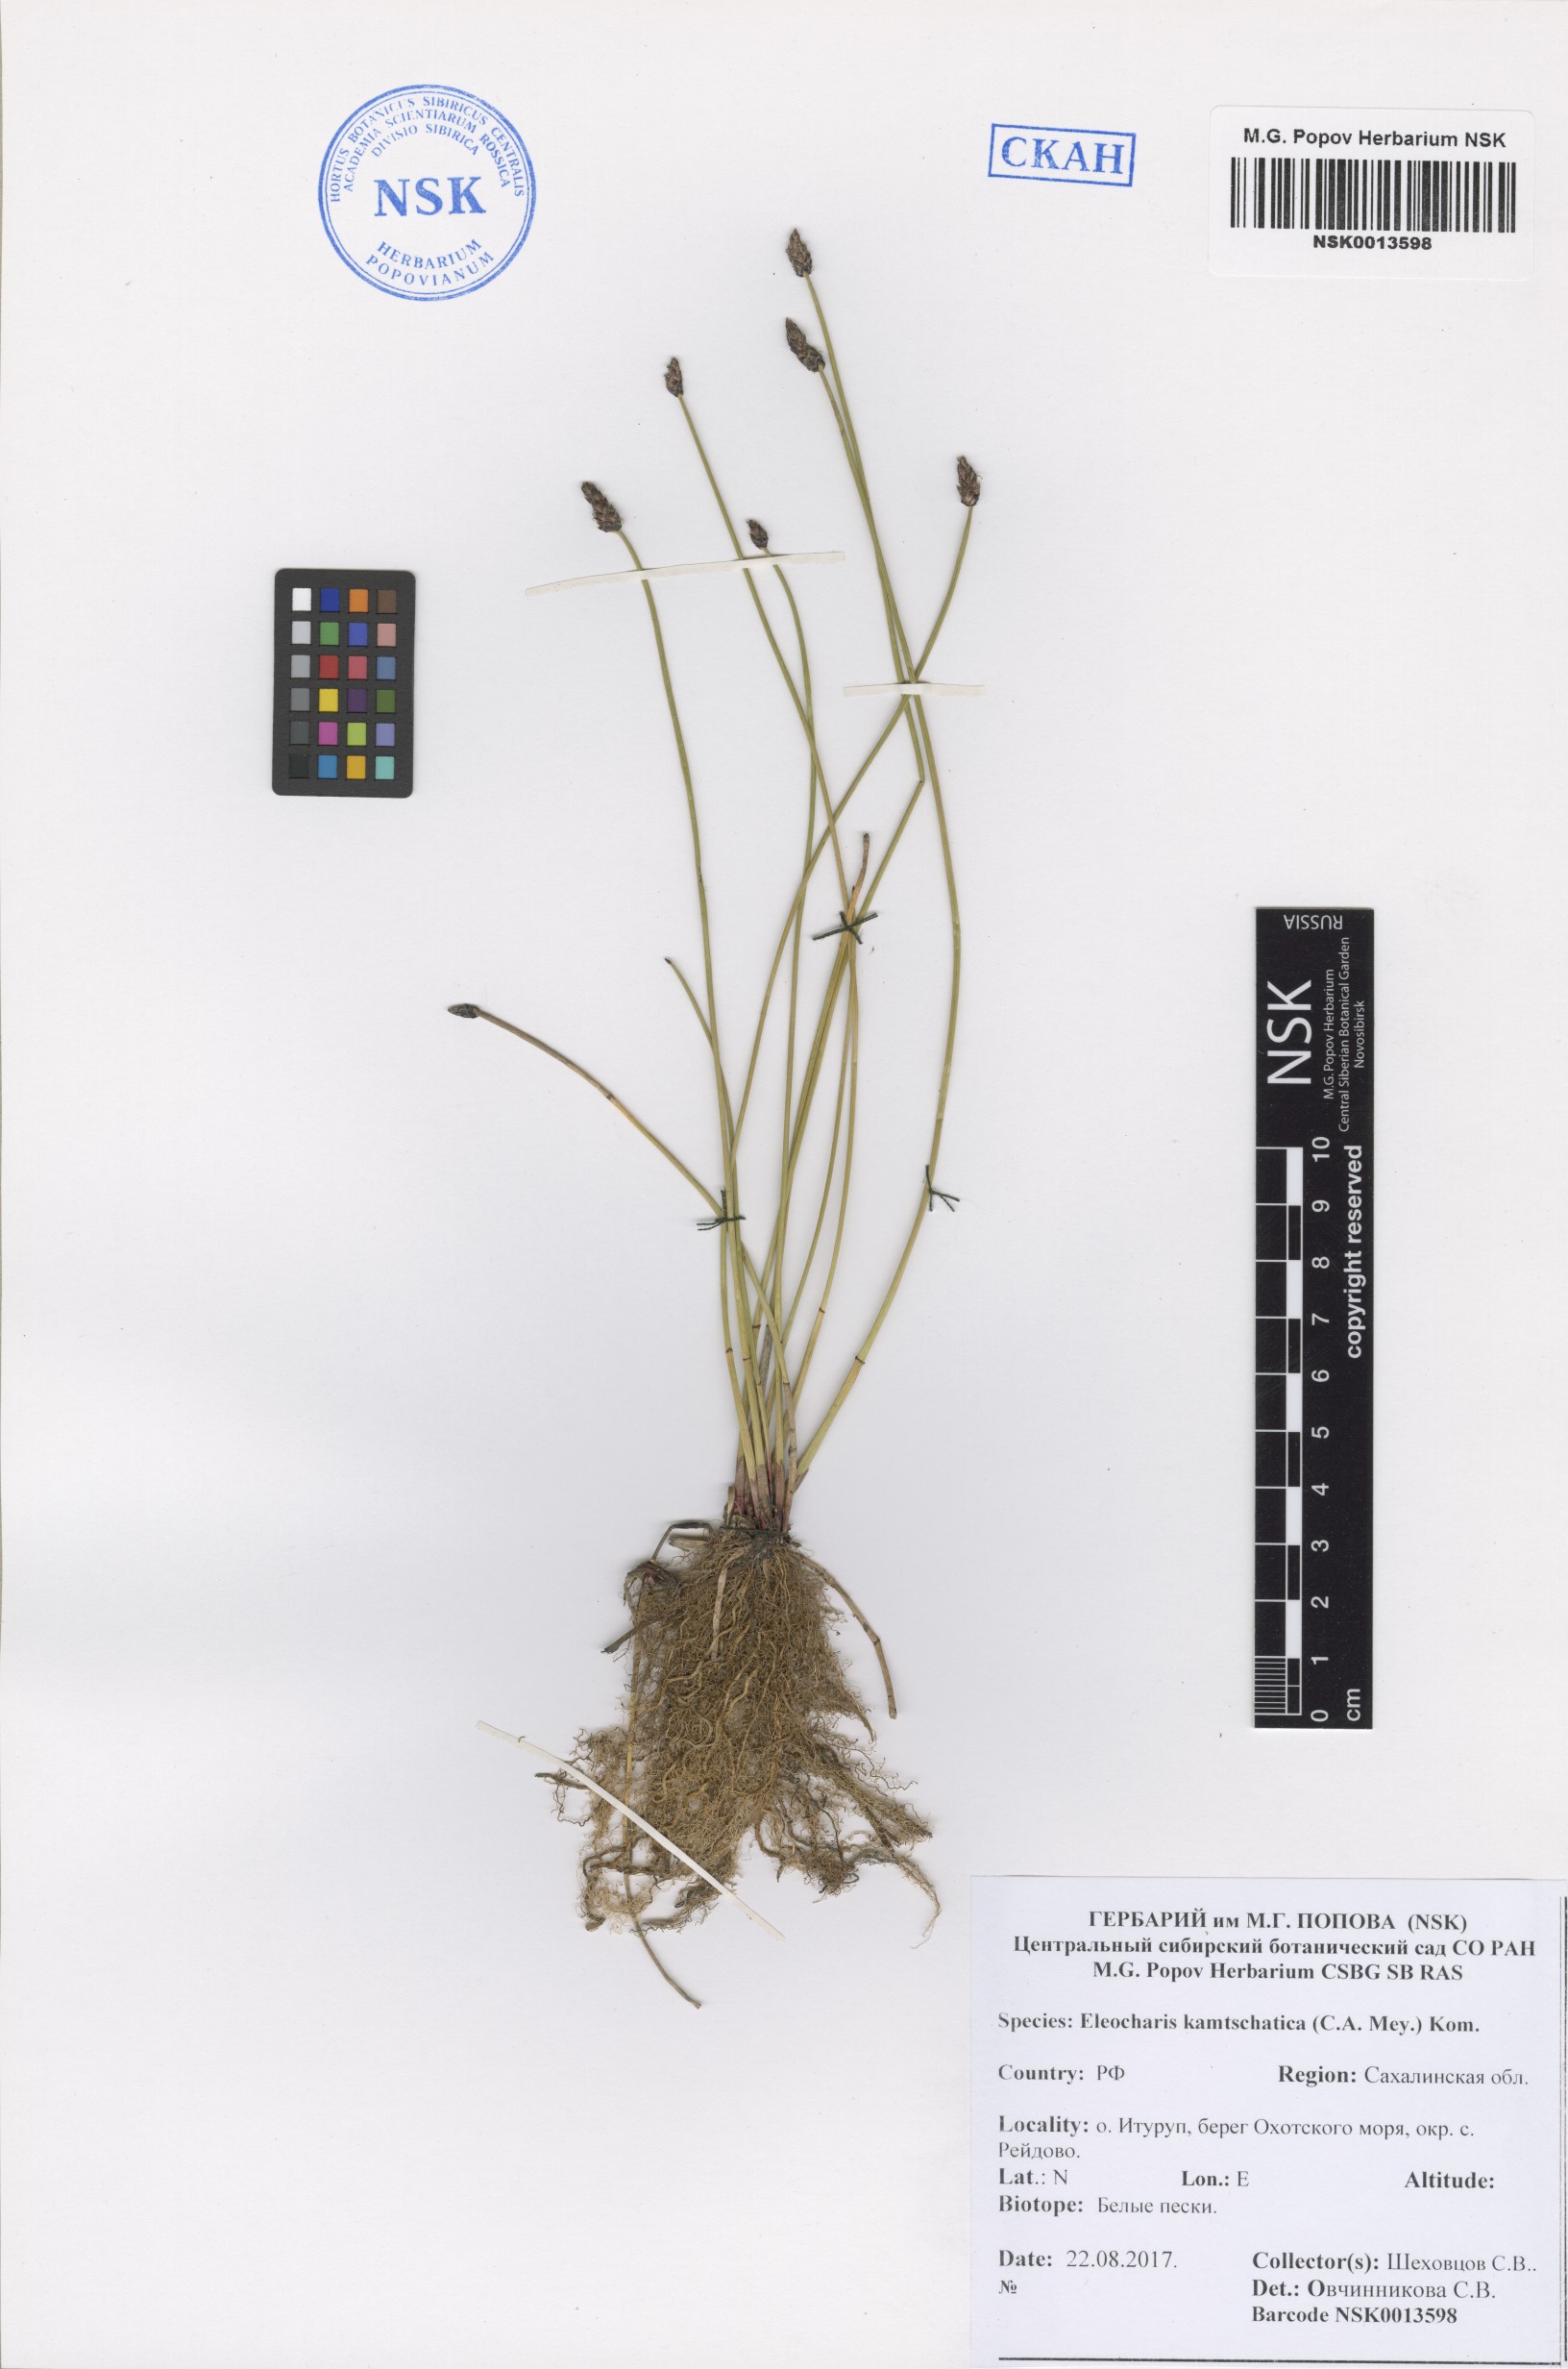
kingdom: Plantae
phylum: Tracheophyta
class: Liliopsida
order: Poales
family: Cyperaceae
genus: Eleocharis
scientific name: Eleocharis kamtschatica
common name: Kamchatka spikerush
